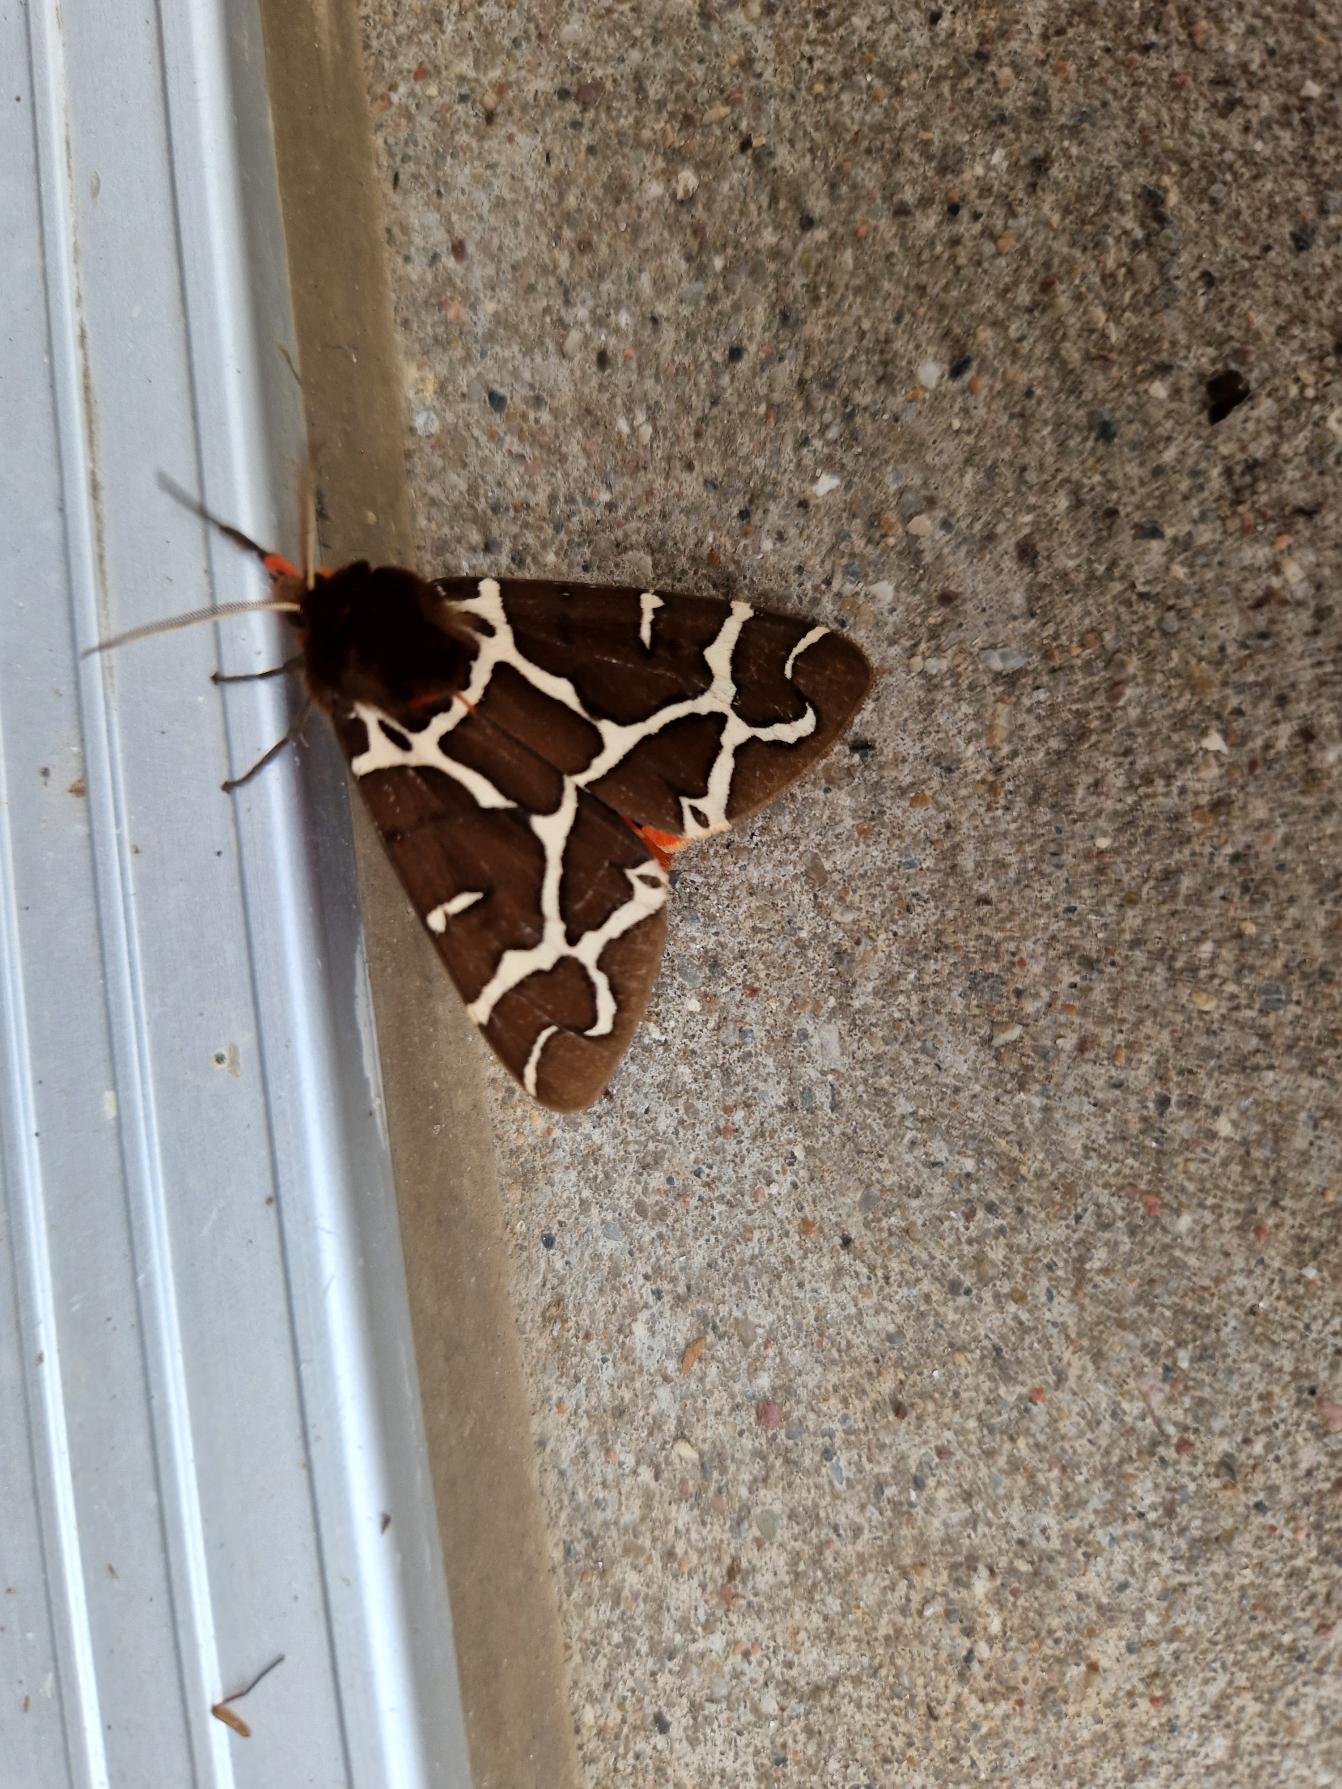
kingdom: Animalia
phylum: Arthropoda
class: Insecta
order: Lepidoptera
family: Erebidae
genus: Arctia
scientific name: Arctia caja
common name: Brun bjørn
